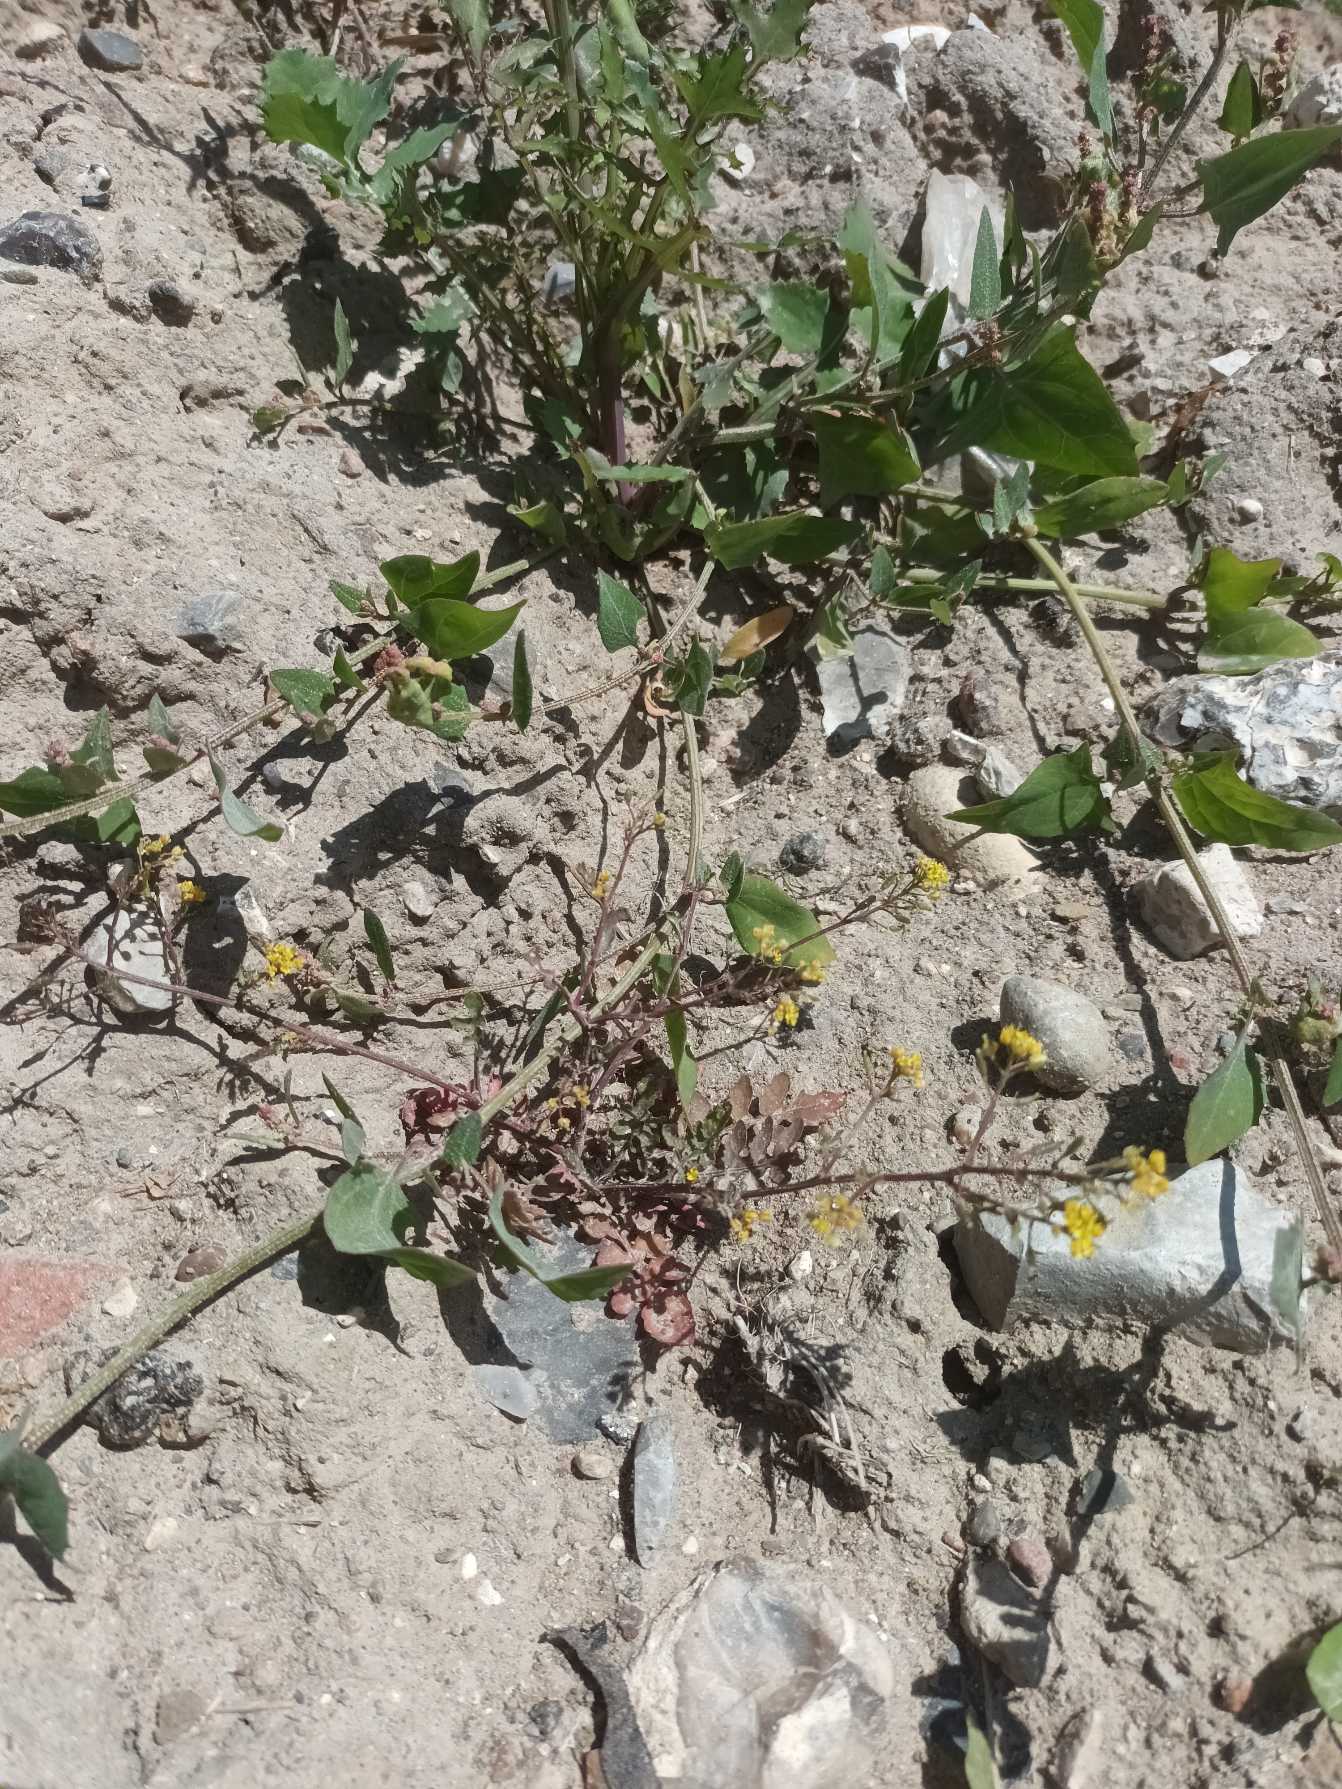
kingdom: Plantae
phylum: Tracheophyta
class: Magnoliopsida
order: Brassicales
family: Brassicaceae
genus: Rorippa
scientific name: Rorippa palustris
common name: Kær-guldkarse
